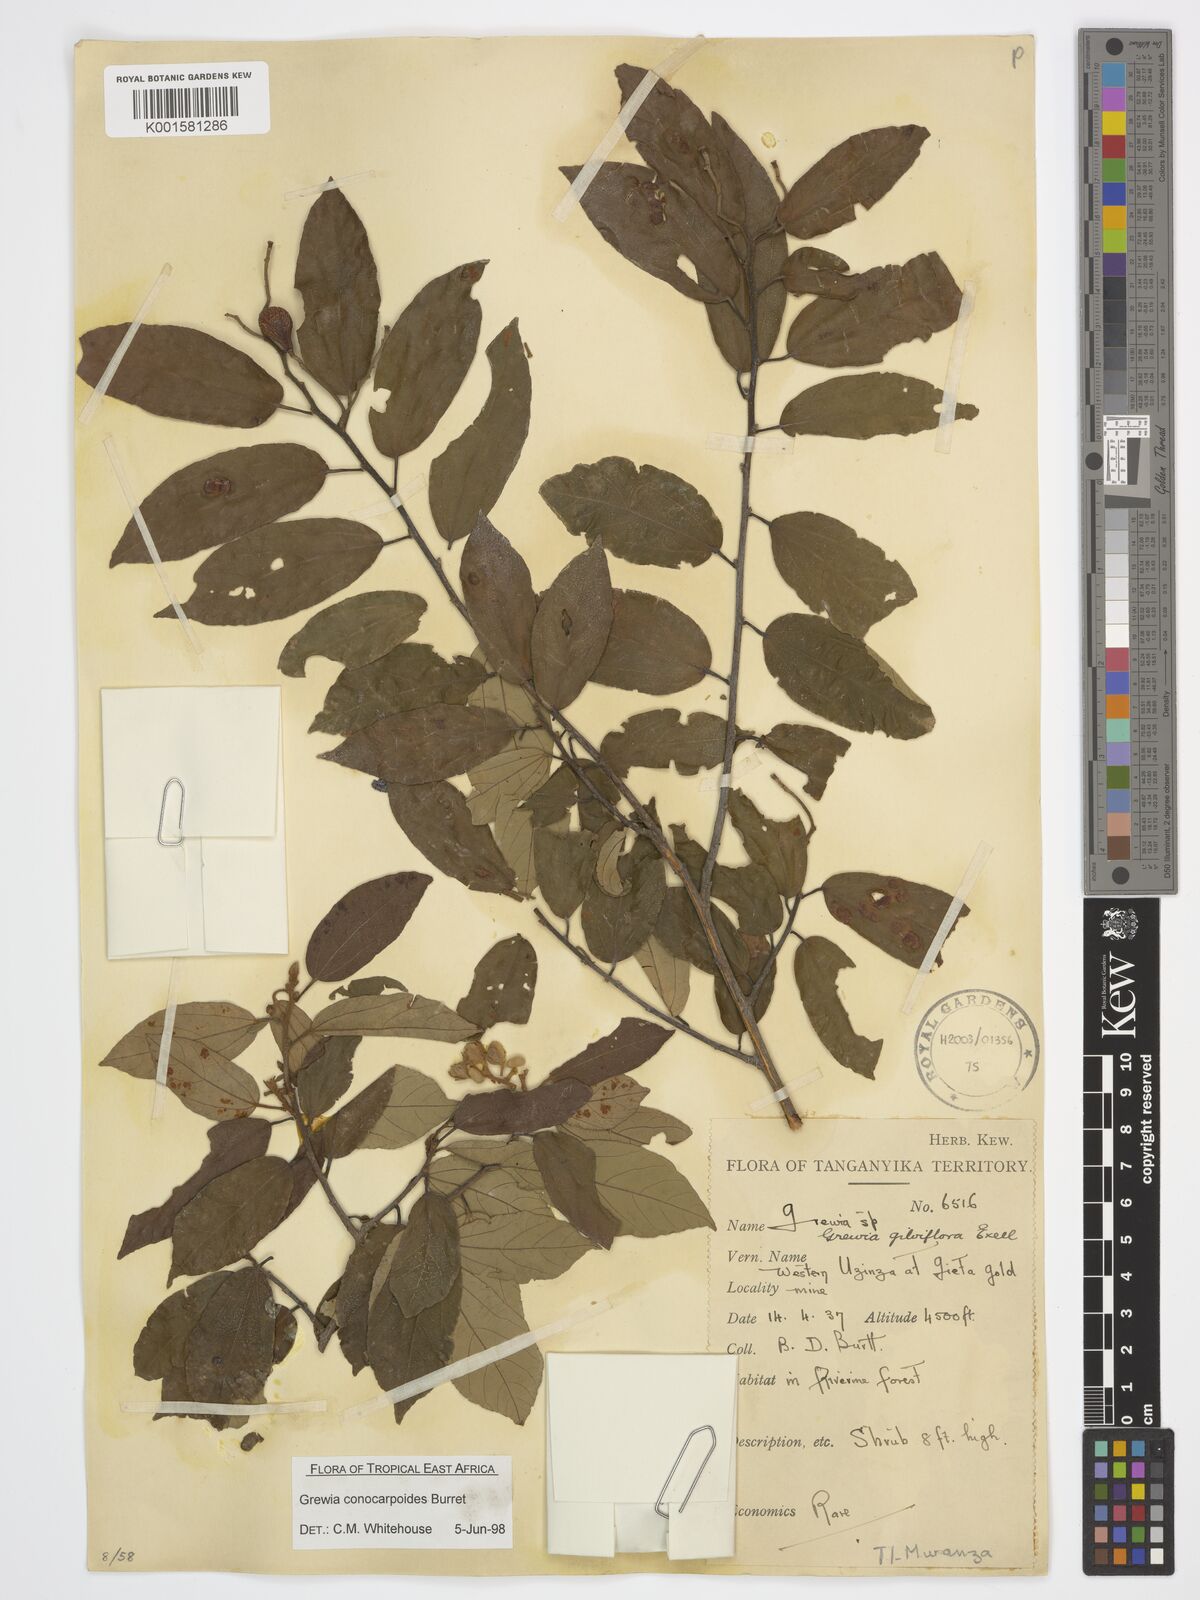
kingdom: Plantae
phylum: Tracheophyta
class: Magnoliopsida
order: Malvales
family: Malvaceae
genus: Microcos
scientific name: Microcos conocarpoides
